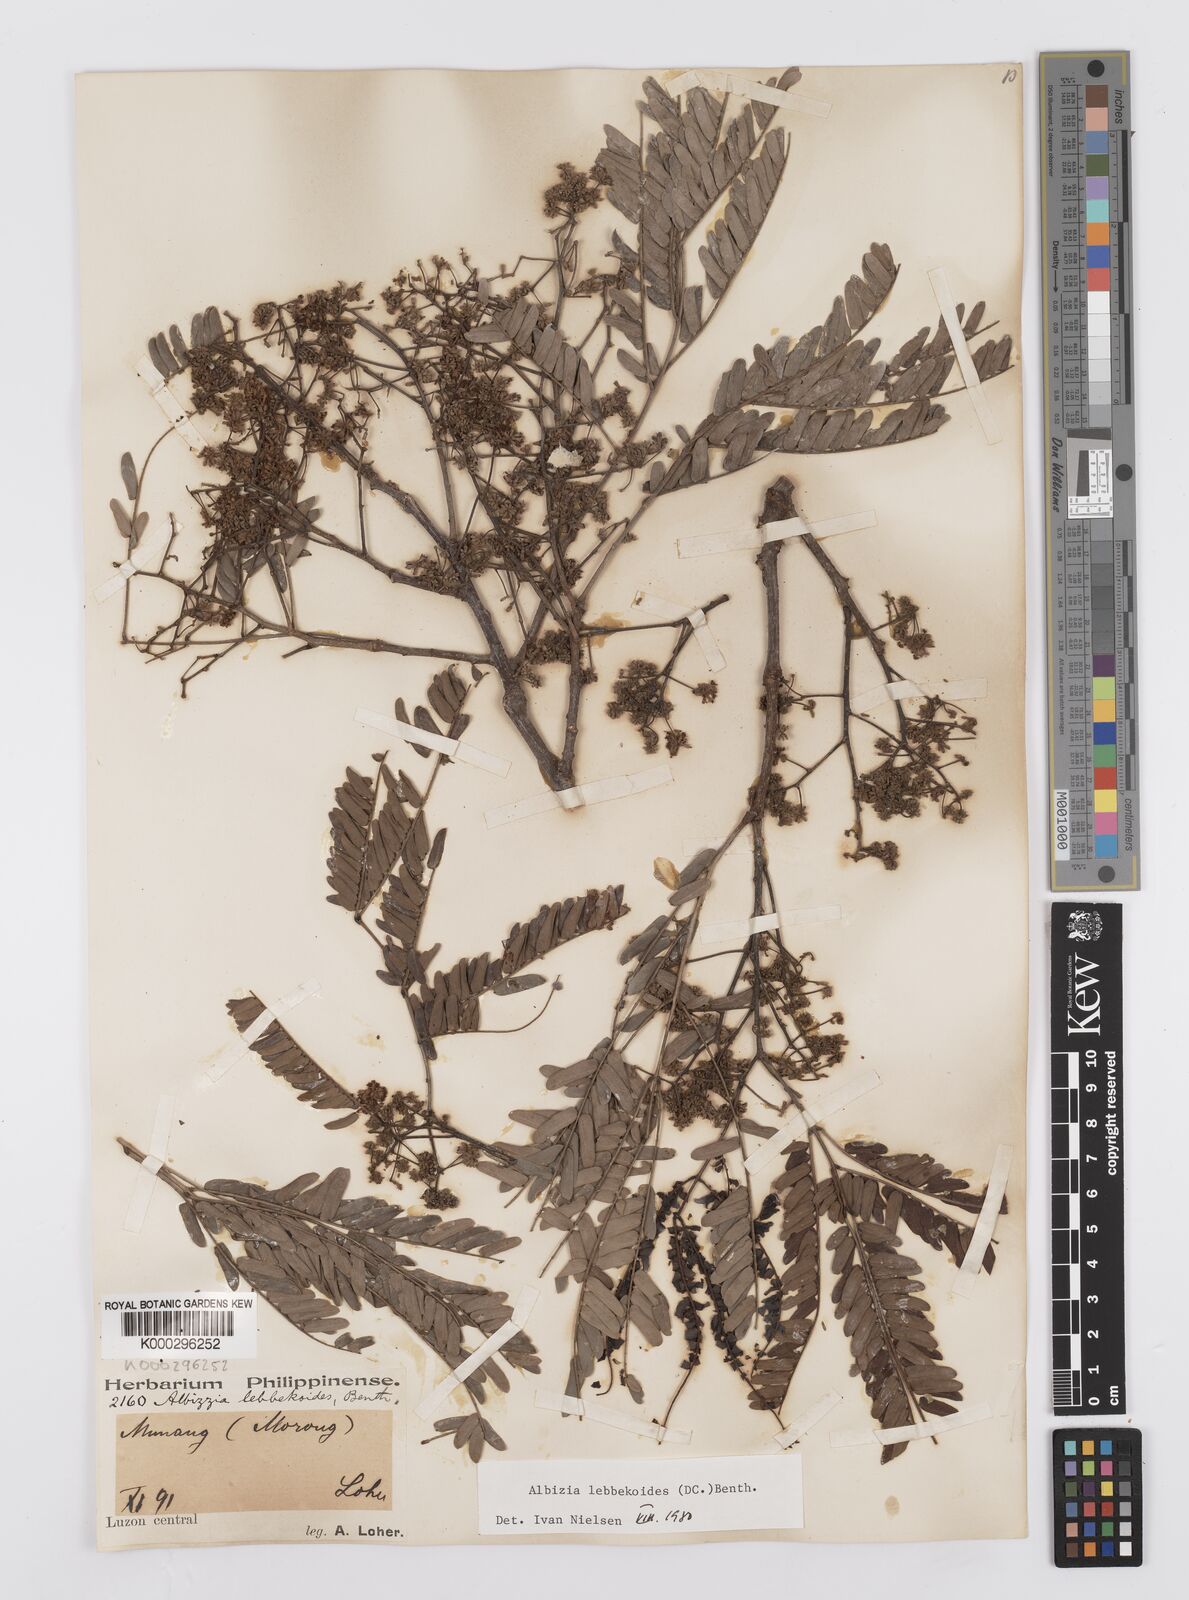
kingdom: Plantae
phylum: Tracheophyta
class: Magnoliopsida
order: Fabales
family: Fabaceae
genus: Albizia
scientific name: Albizia lebbekoides
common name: Indian albizia
